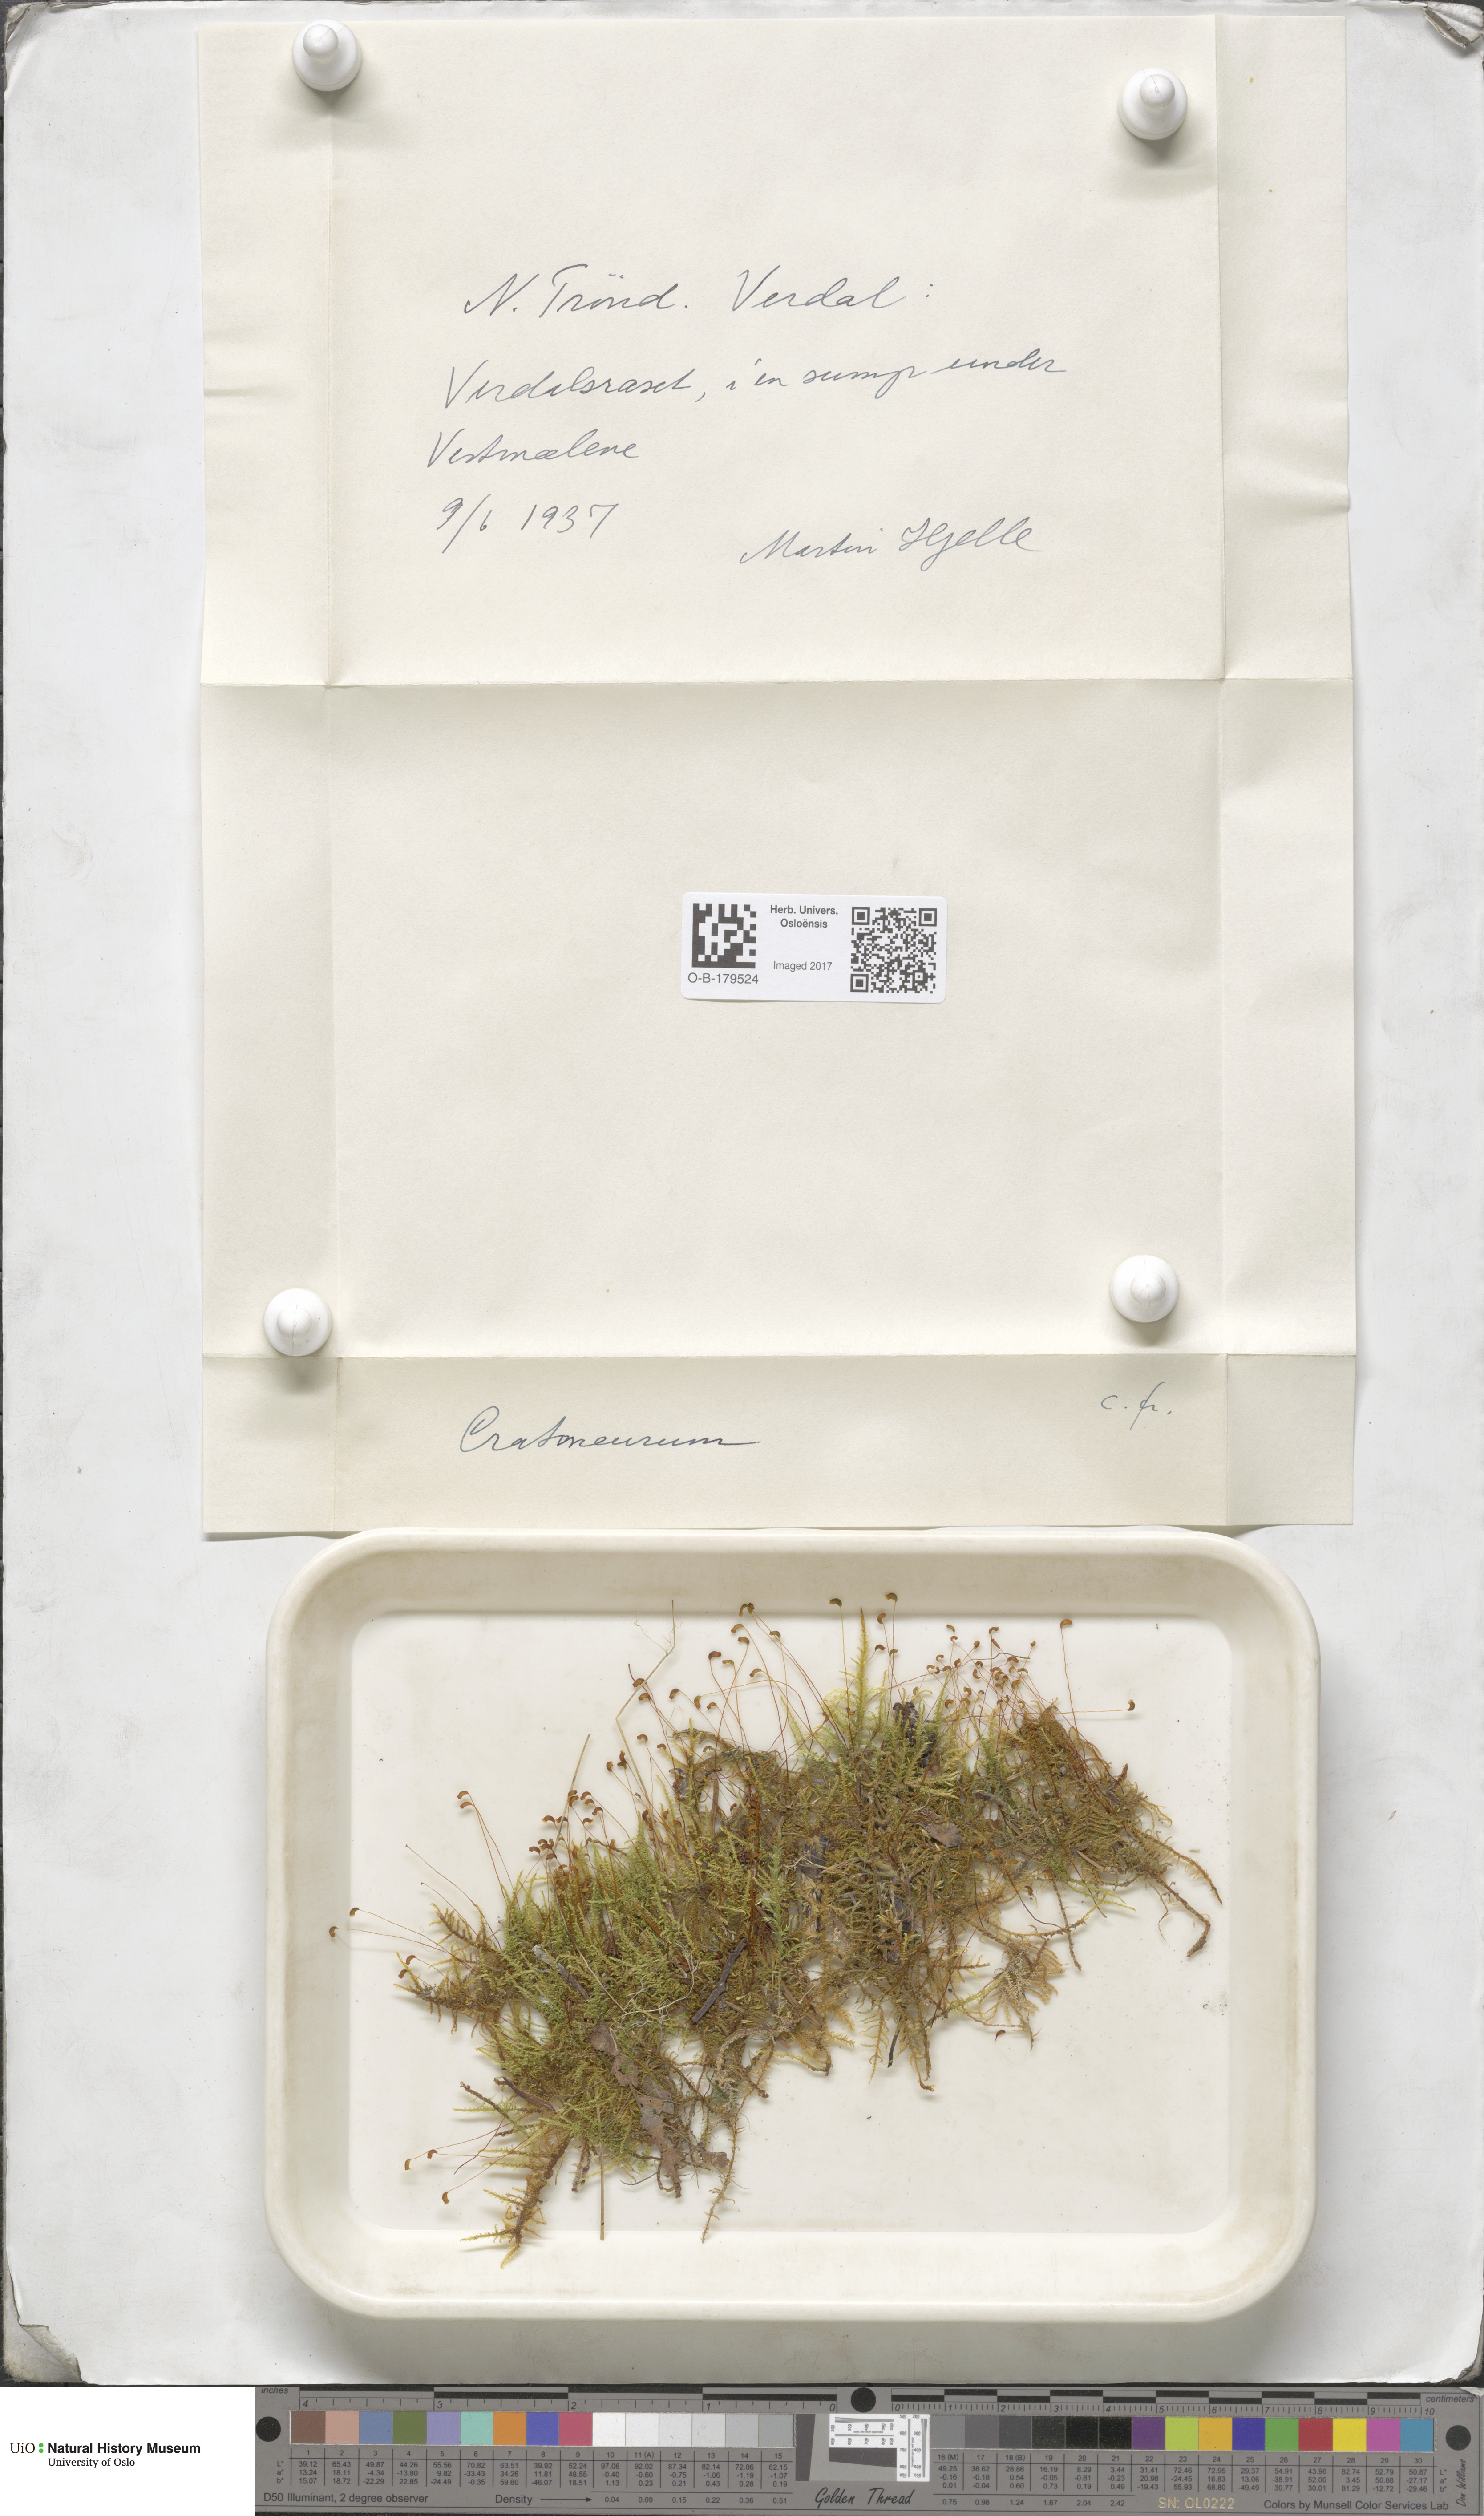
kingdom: Plantae
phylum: Bryophyta
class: Bryopsida
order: Hypnales
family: Amblystegiaceae
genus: Cratoneuron
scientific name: Cratoneuron
